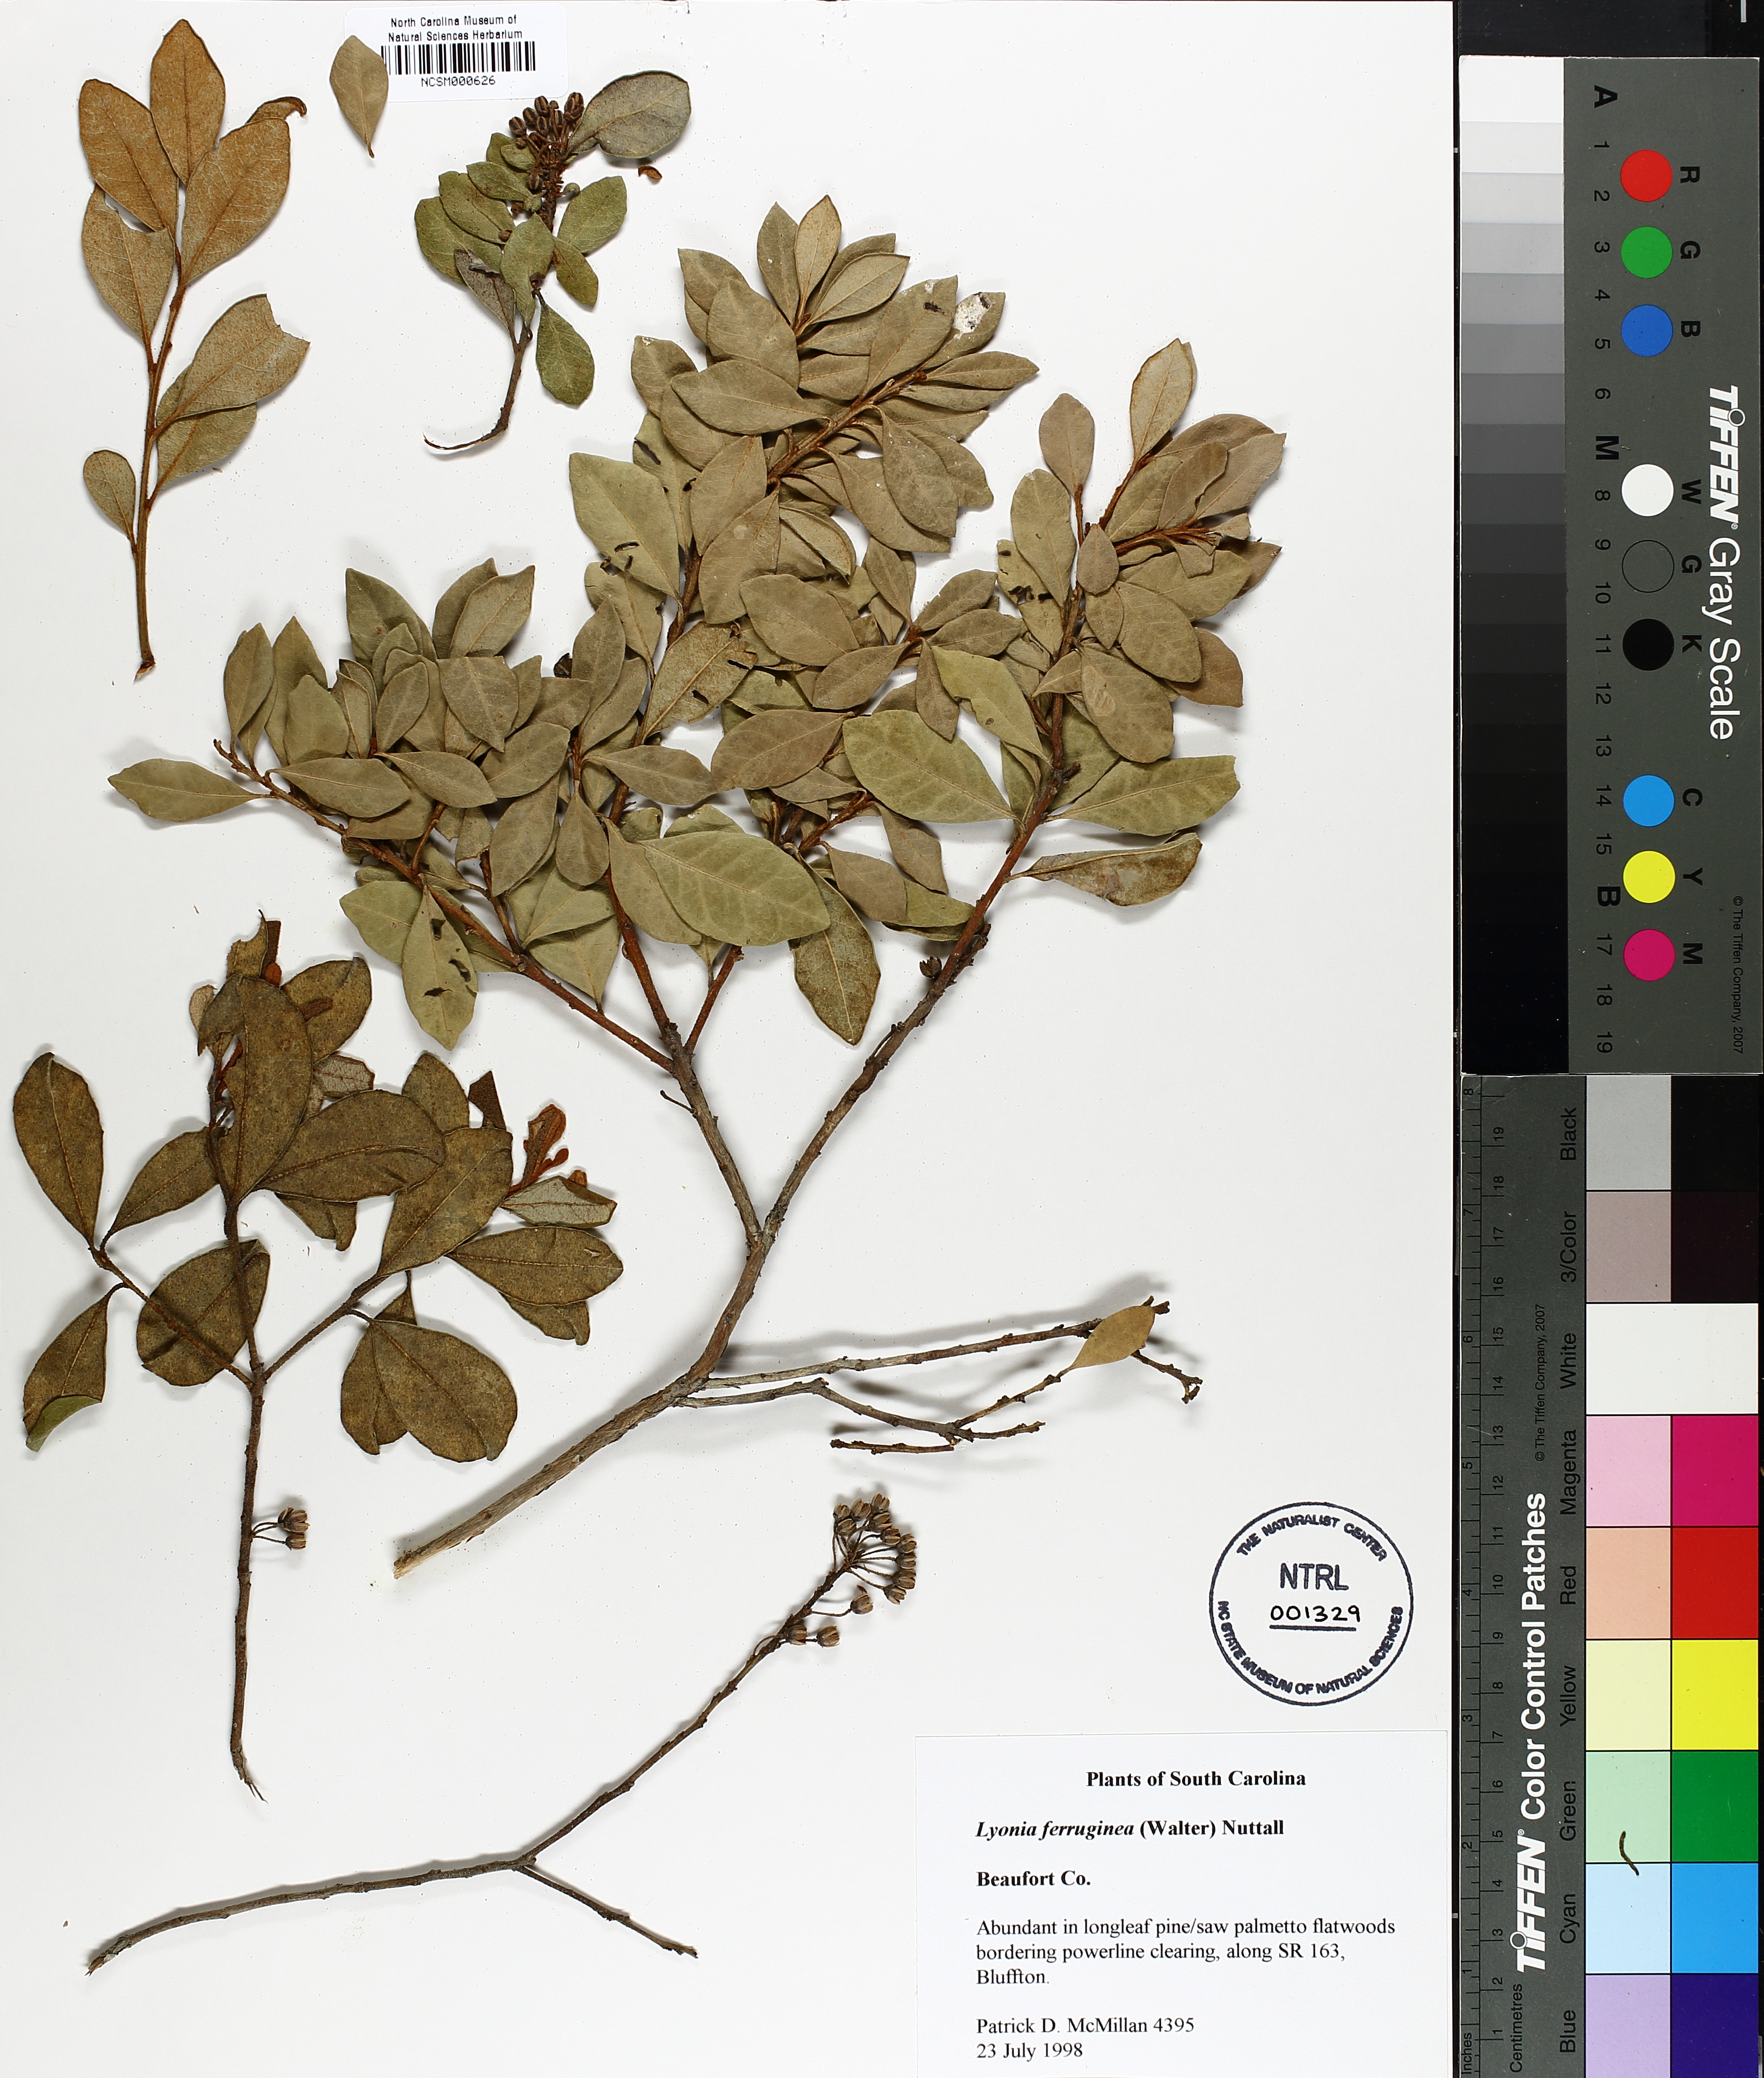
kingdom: Plantae
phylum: Tracheophyta
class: Magnoliopsida
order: Ericales
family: Ericaceae
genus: Lyonia
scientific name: Lyonia ferruginea
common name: Rusty lyonia
